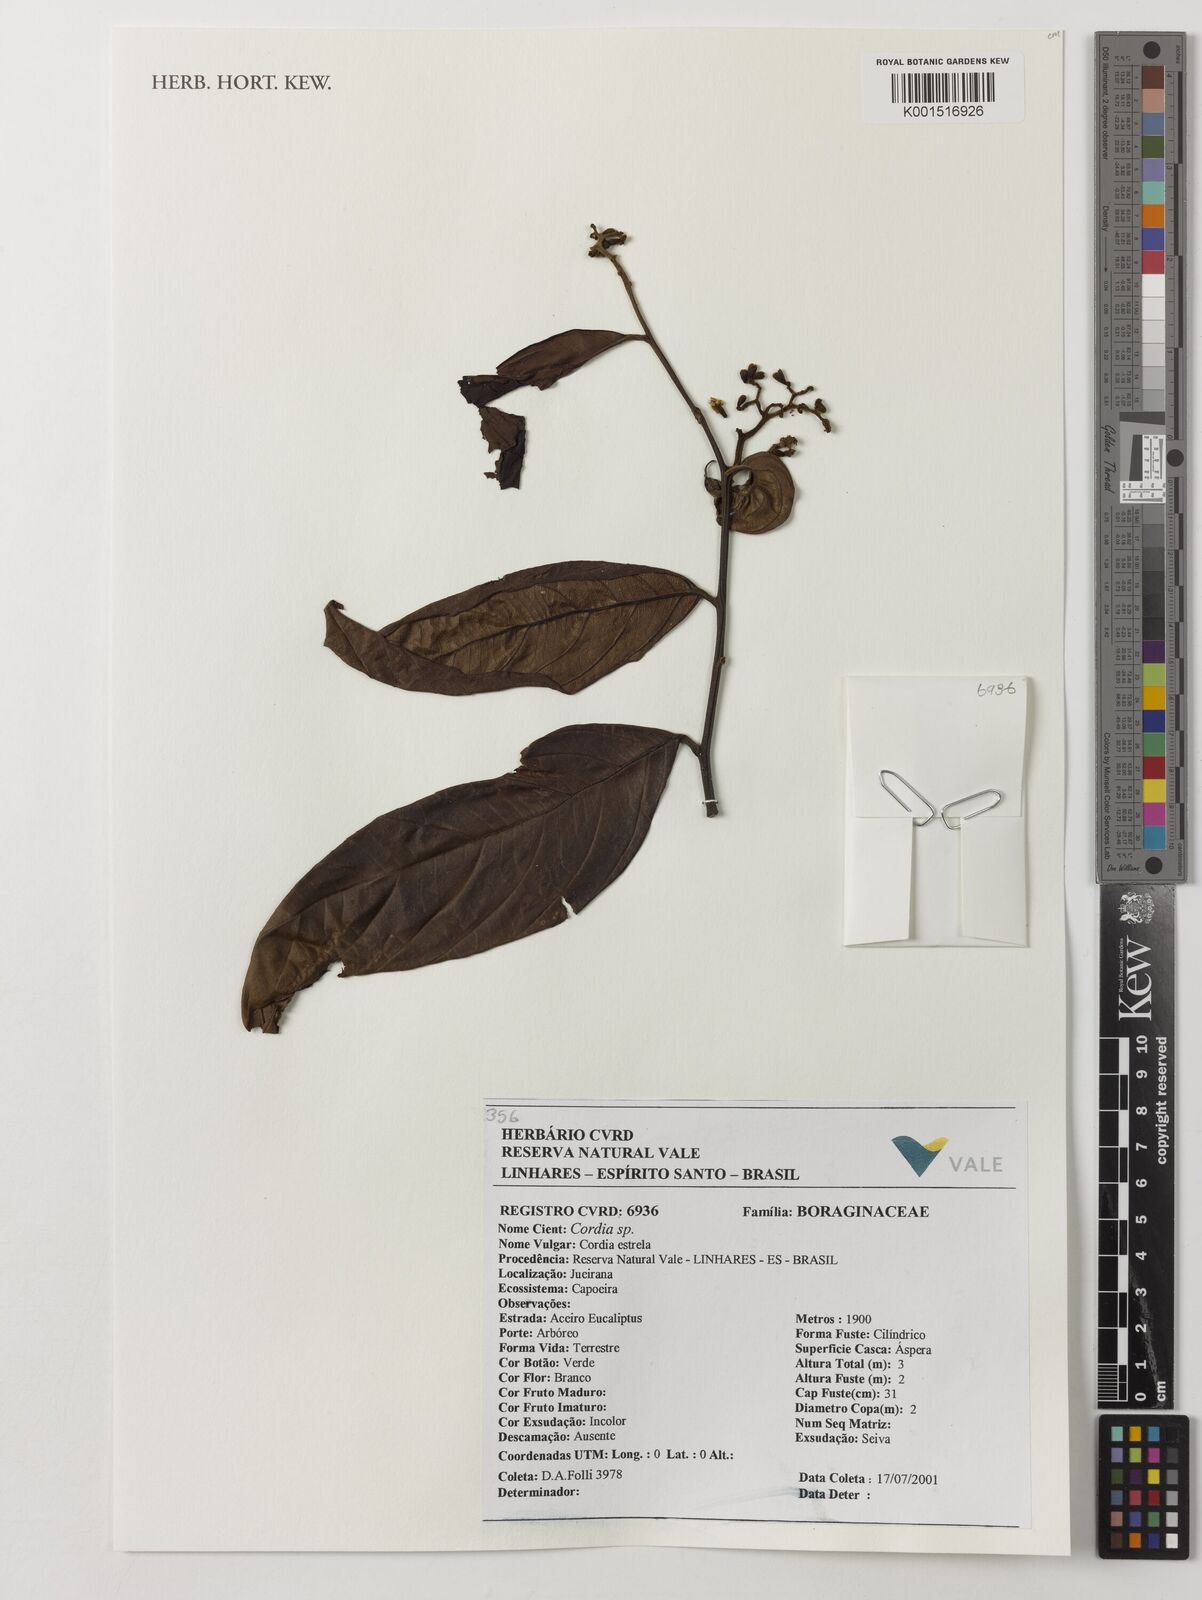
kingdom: Plantae
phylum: Tracheophyta
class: Magnoliopsida
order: Boraginales
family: Cordiaceae
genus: Cordia
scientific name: Cordia
